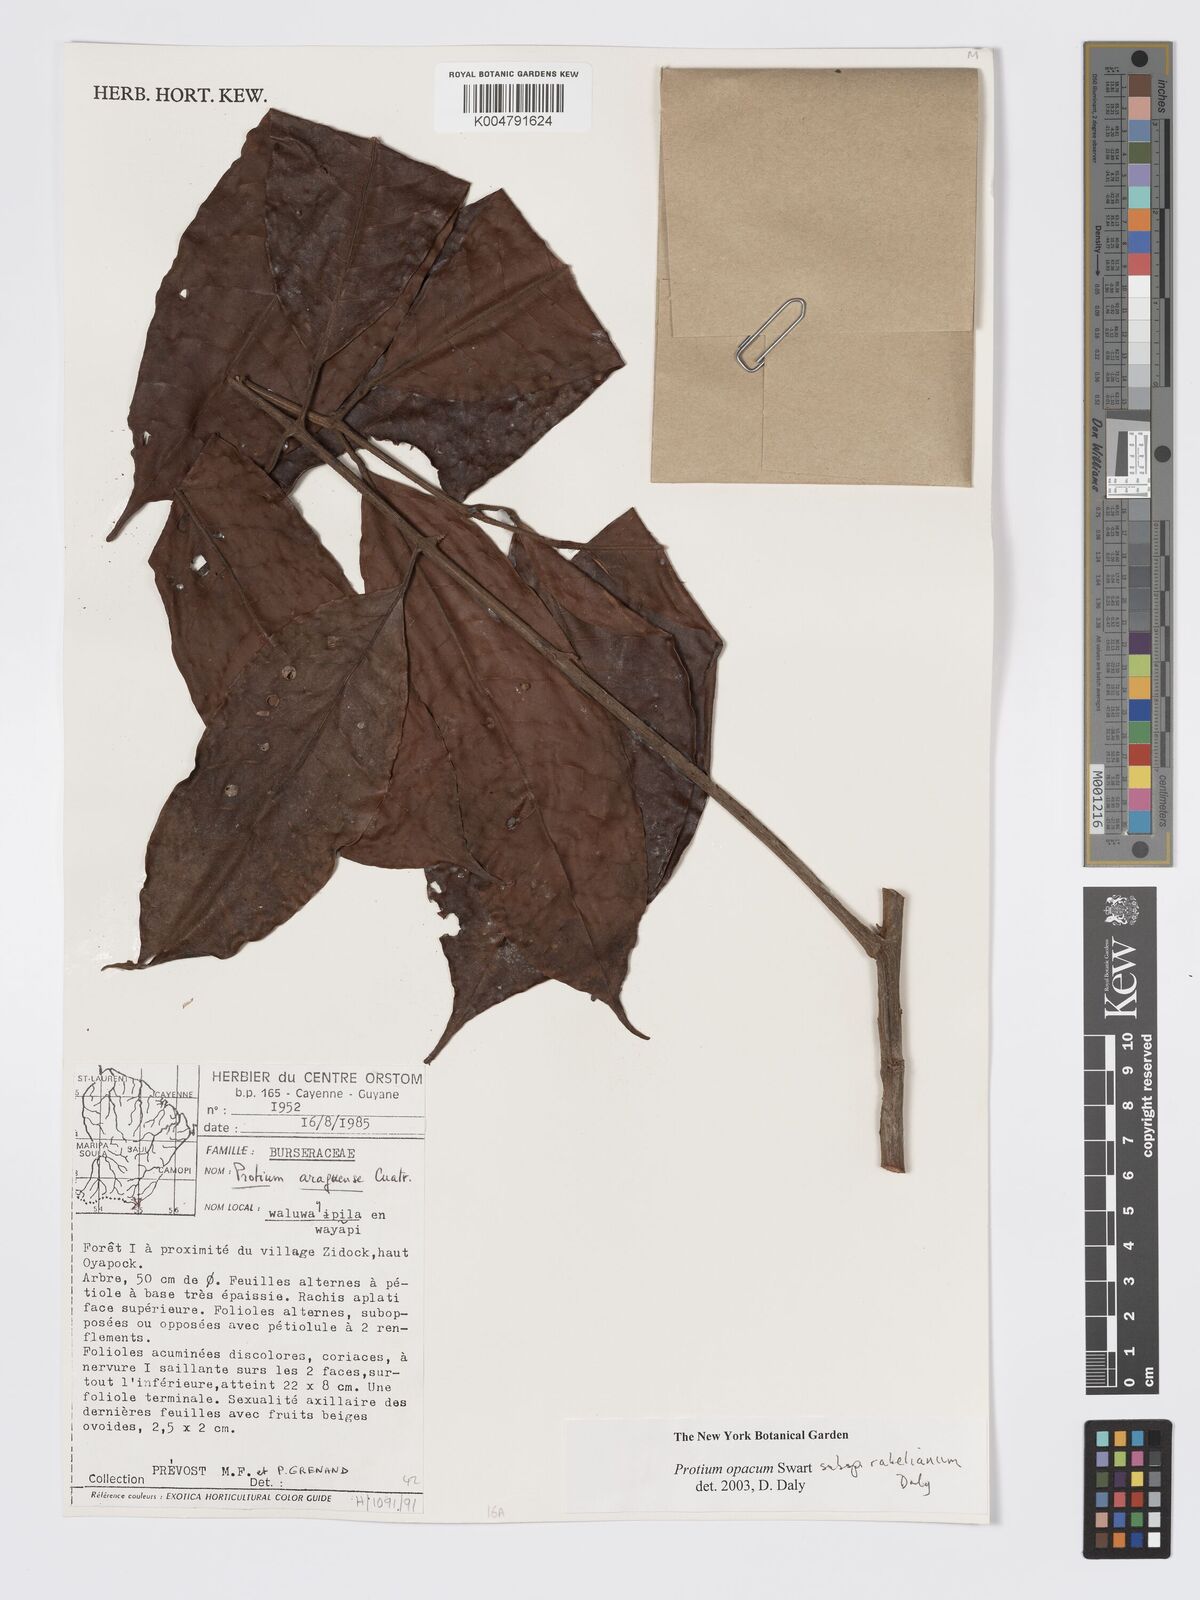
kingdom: Plantae
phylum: Tracheophyta
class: Magnoliopsida
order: Sapindales
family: Burseraceae
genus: Protium
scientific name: Protium opacum
